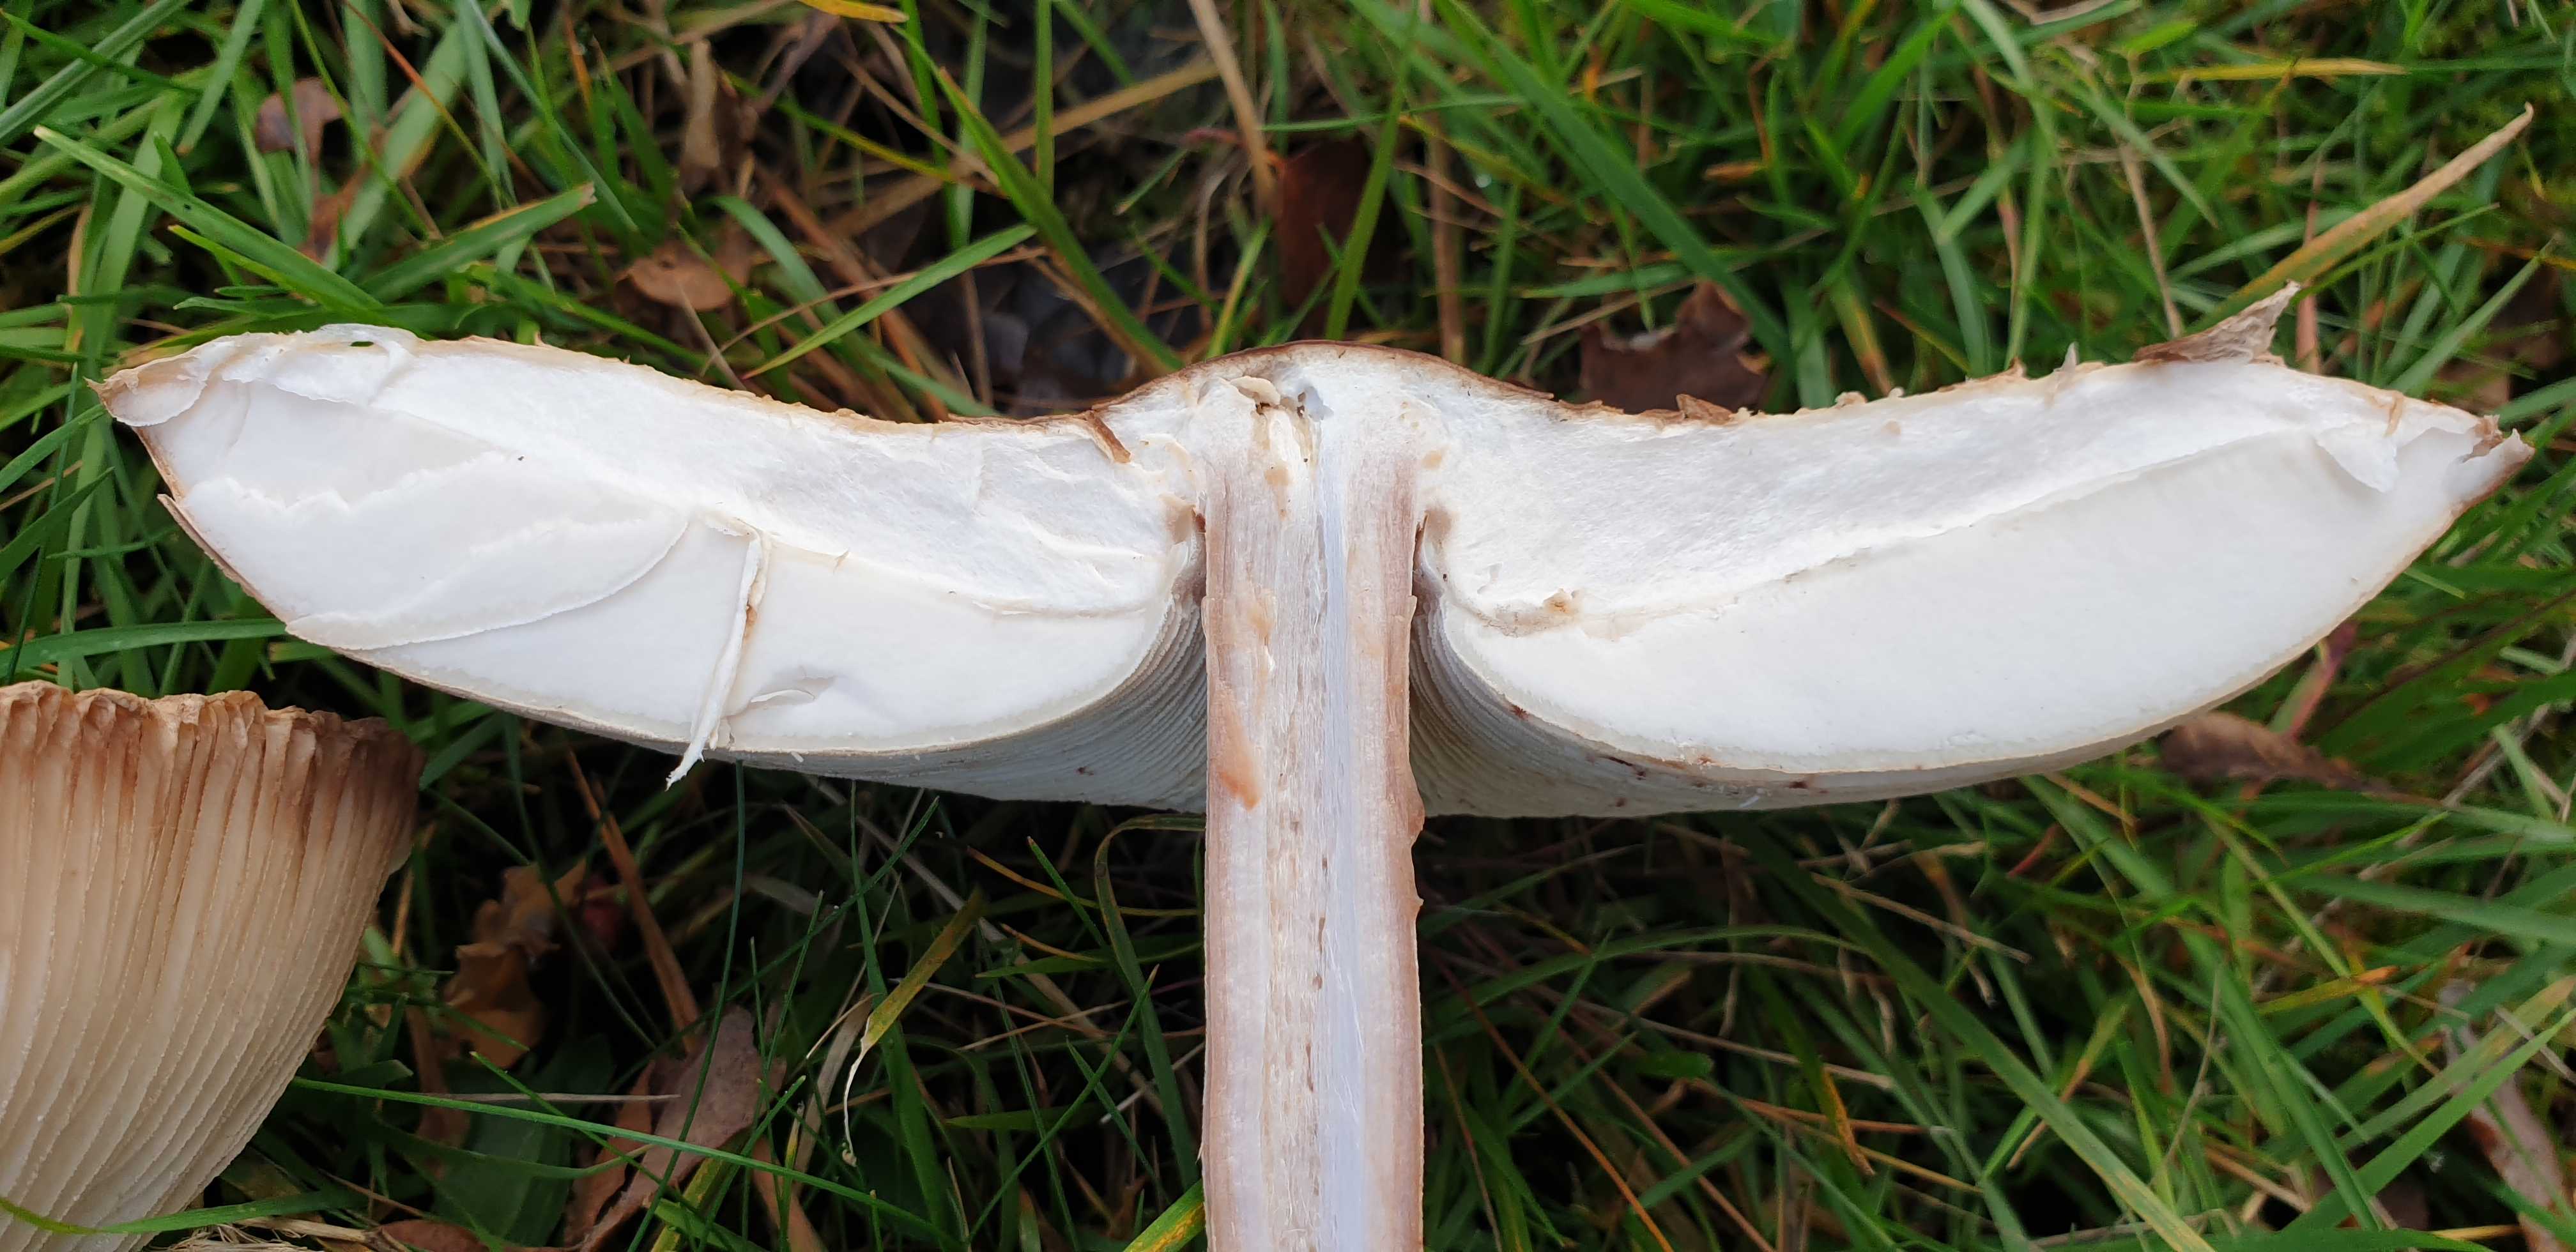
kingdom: Fungi
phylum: Basidiomycota
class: Agaricomycetes
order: Agaricales
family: Agaricaceae
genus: Macrolepiota
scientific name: Macrolepiota procera
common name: stor kæmpeparasolhat
